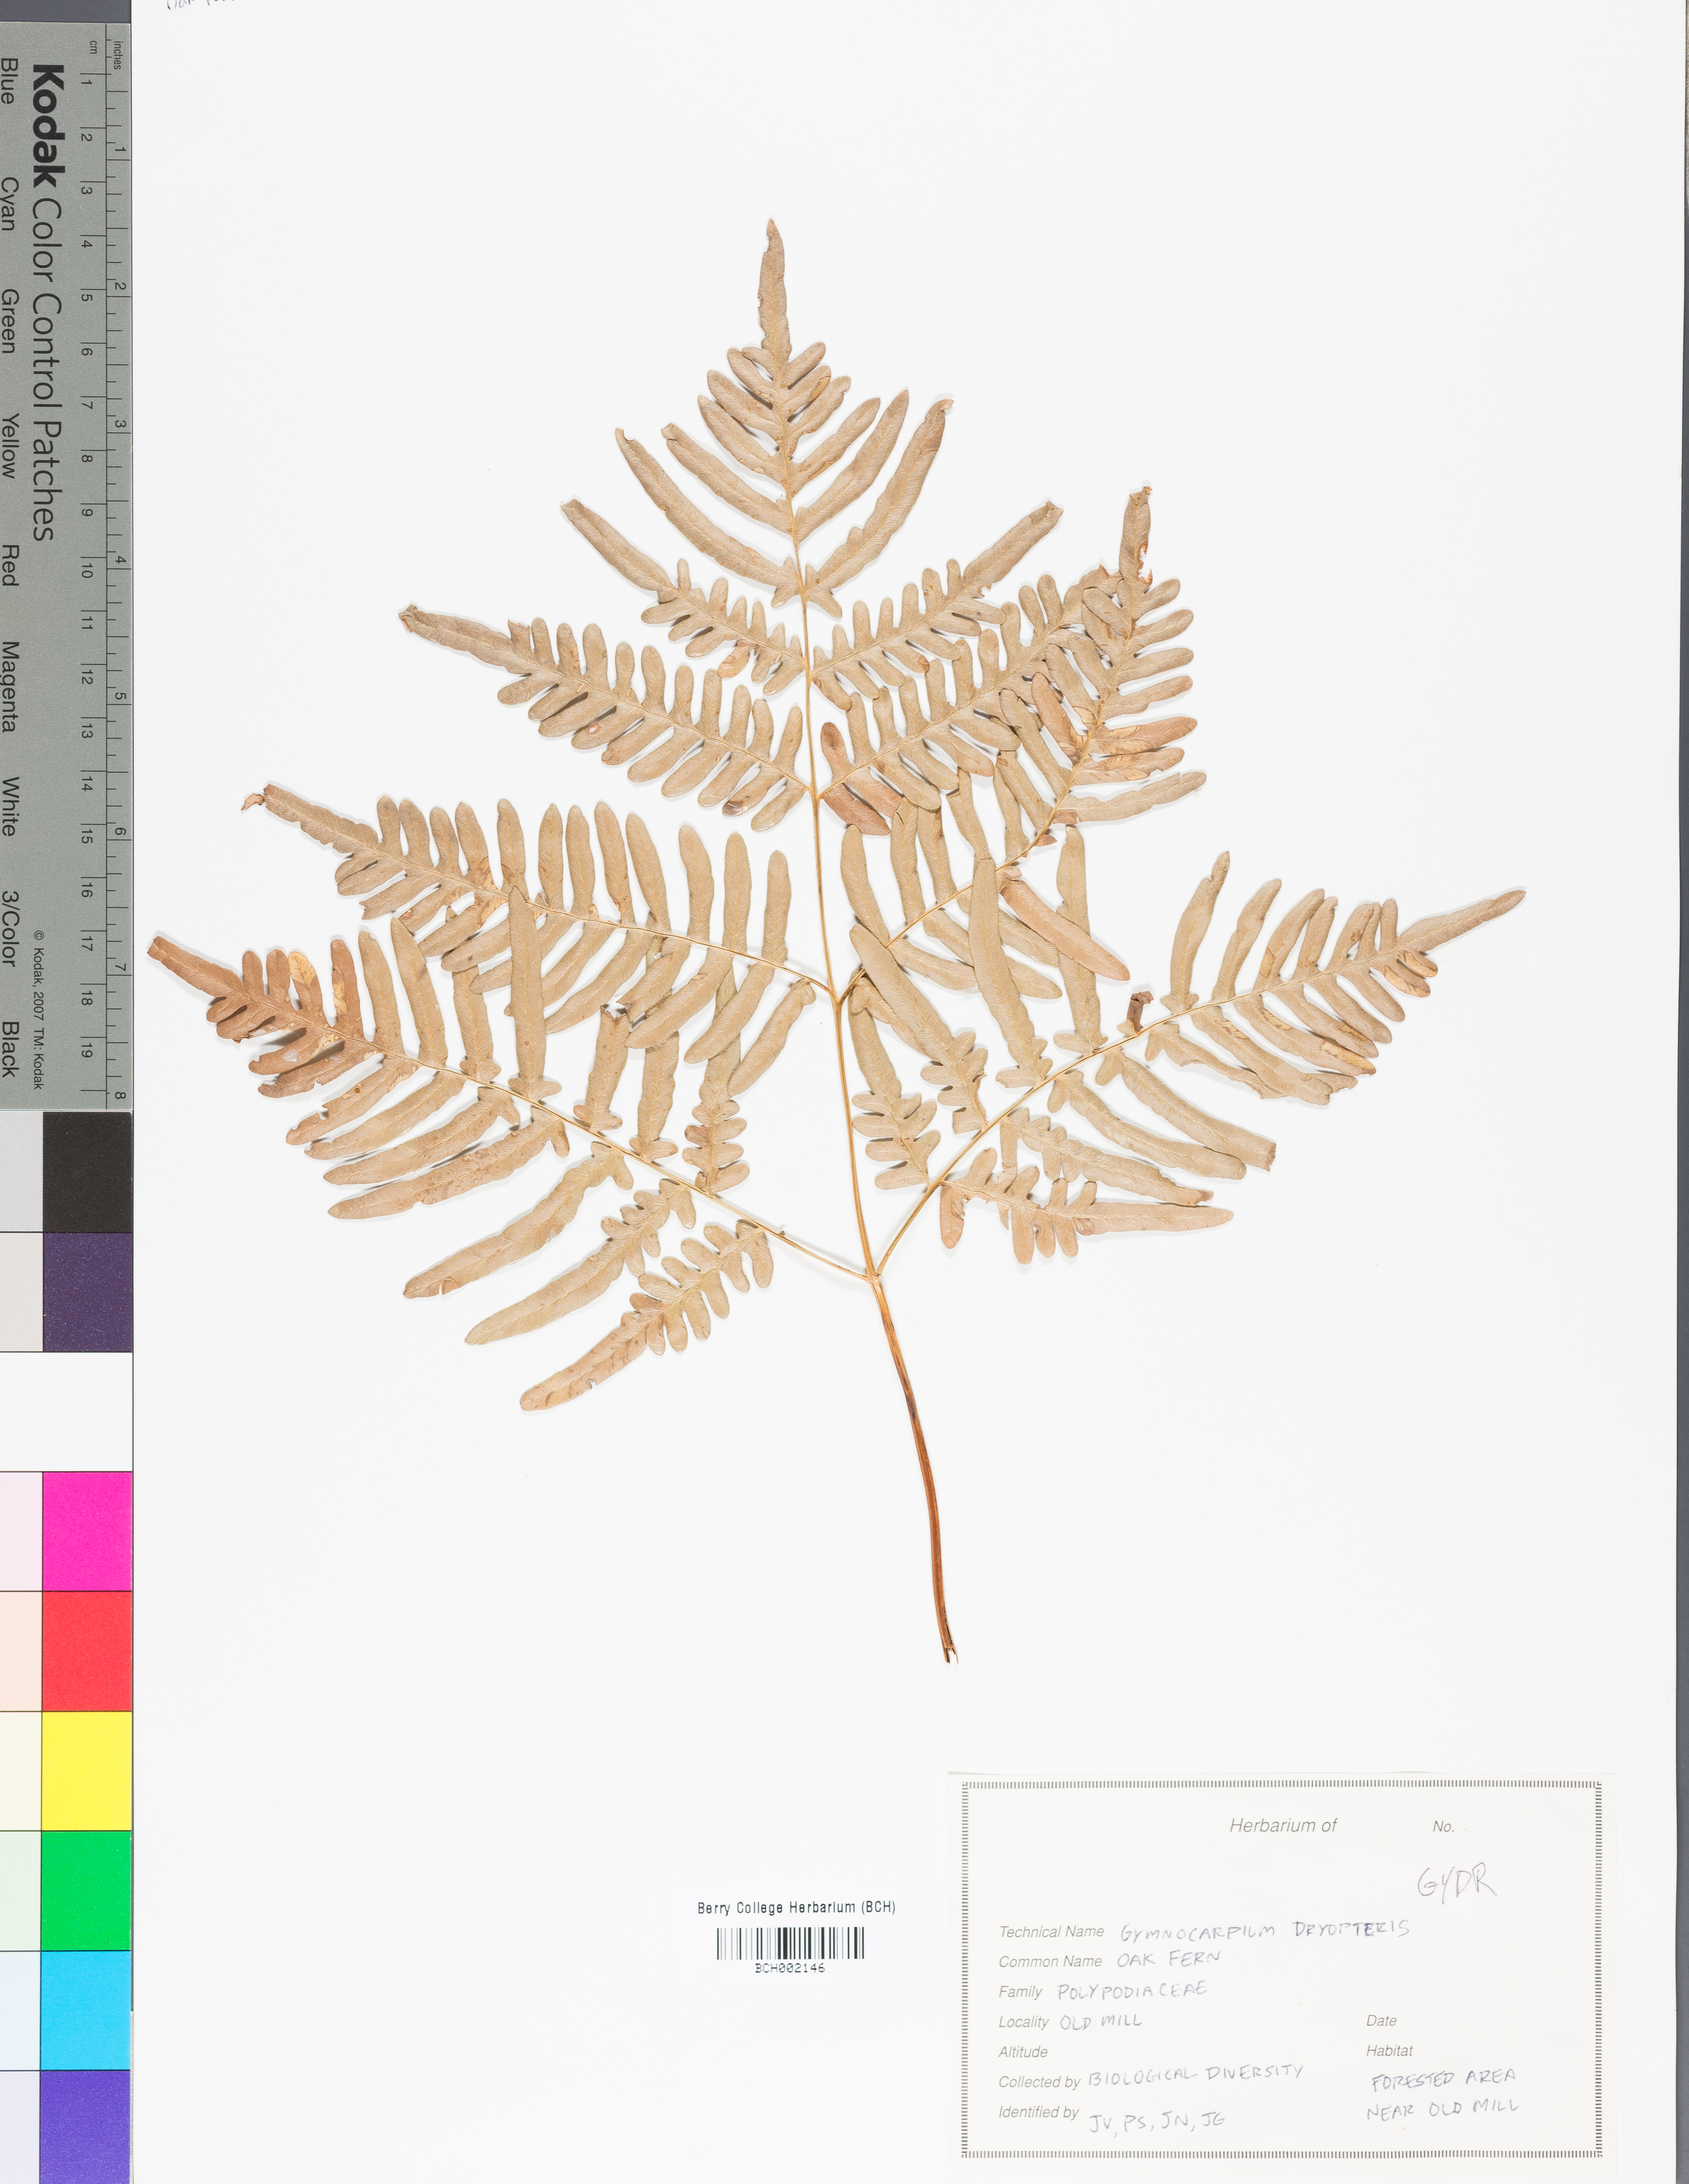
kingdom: Plantae
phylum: Tracheophyta
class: Polypodiopsida
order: Polypodiales
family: Dryopteridaceae
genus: Polystichum
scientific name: Polystichum acrostichoides
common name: Christmas fern
